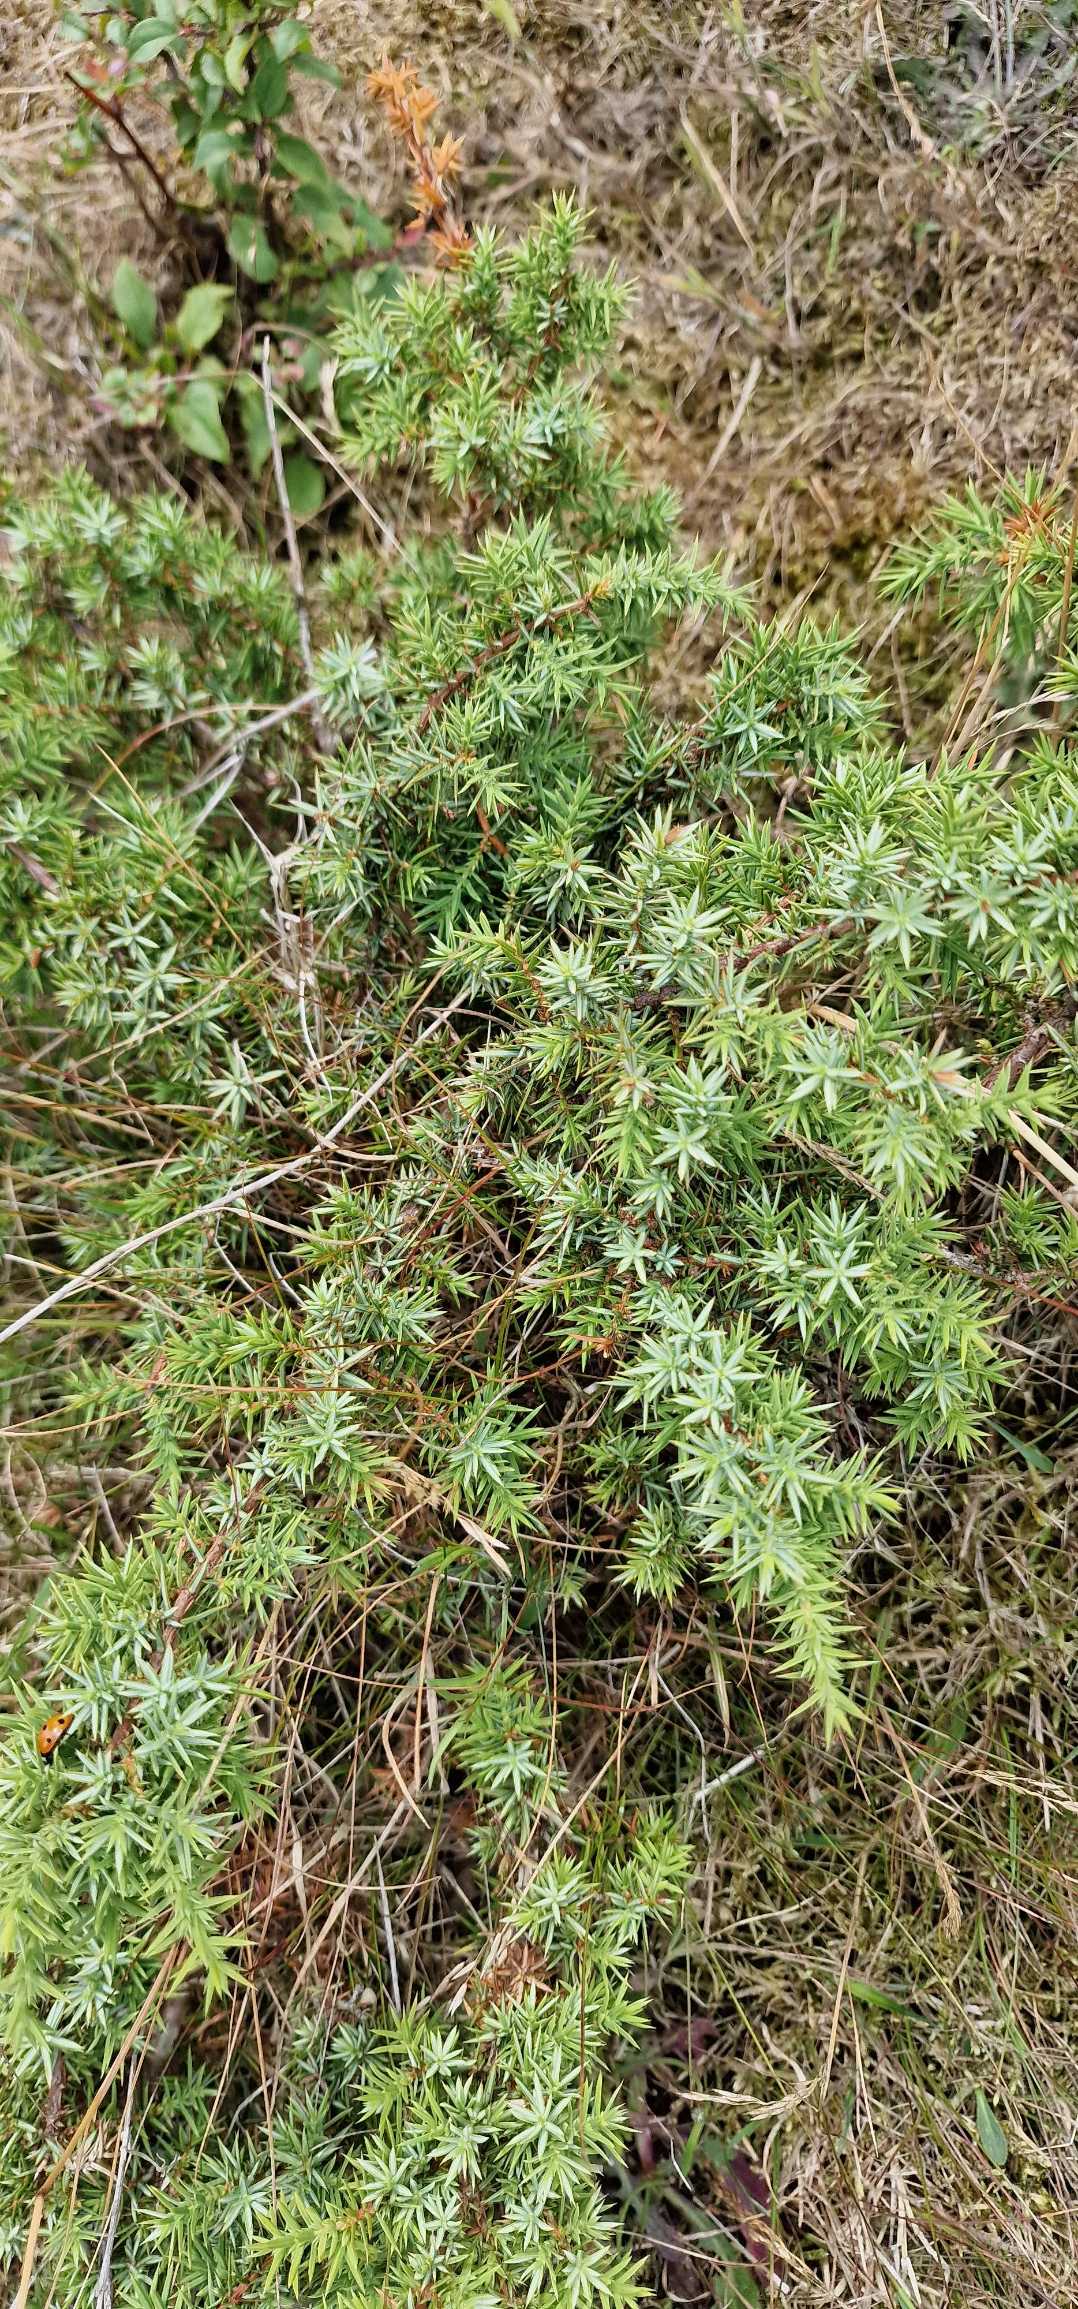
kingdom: Plantae
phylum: Tracheophyta
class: Pinopsida
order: Pinales
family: Cupressaceae
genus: Juniperus
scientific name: Juniperus communis
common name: Almindelig ene
